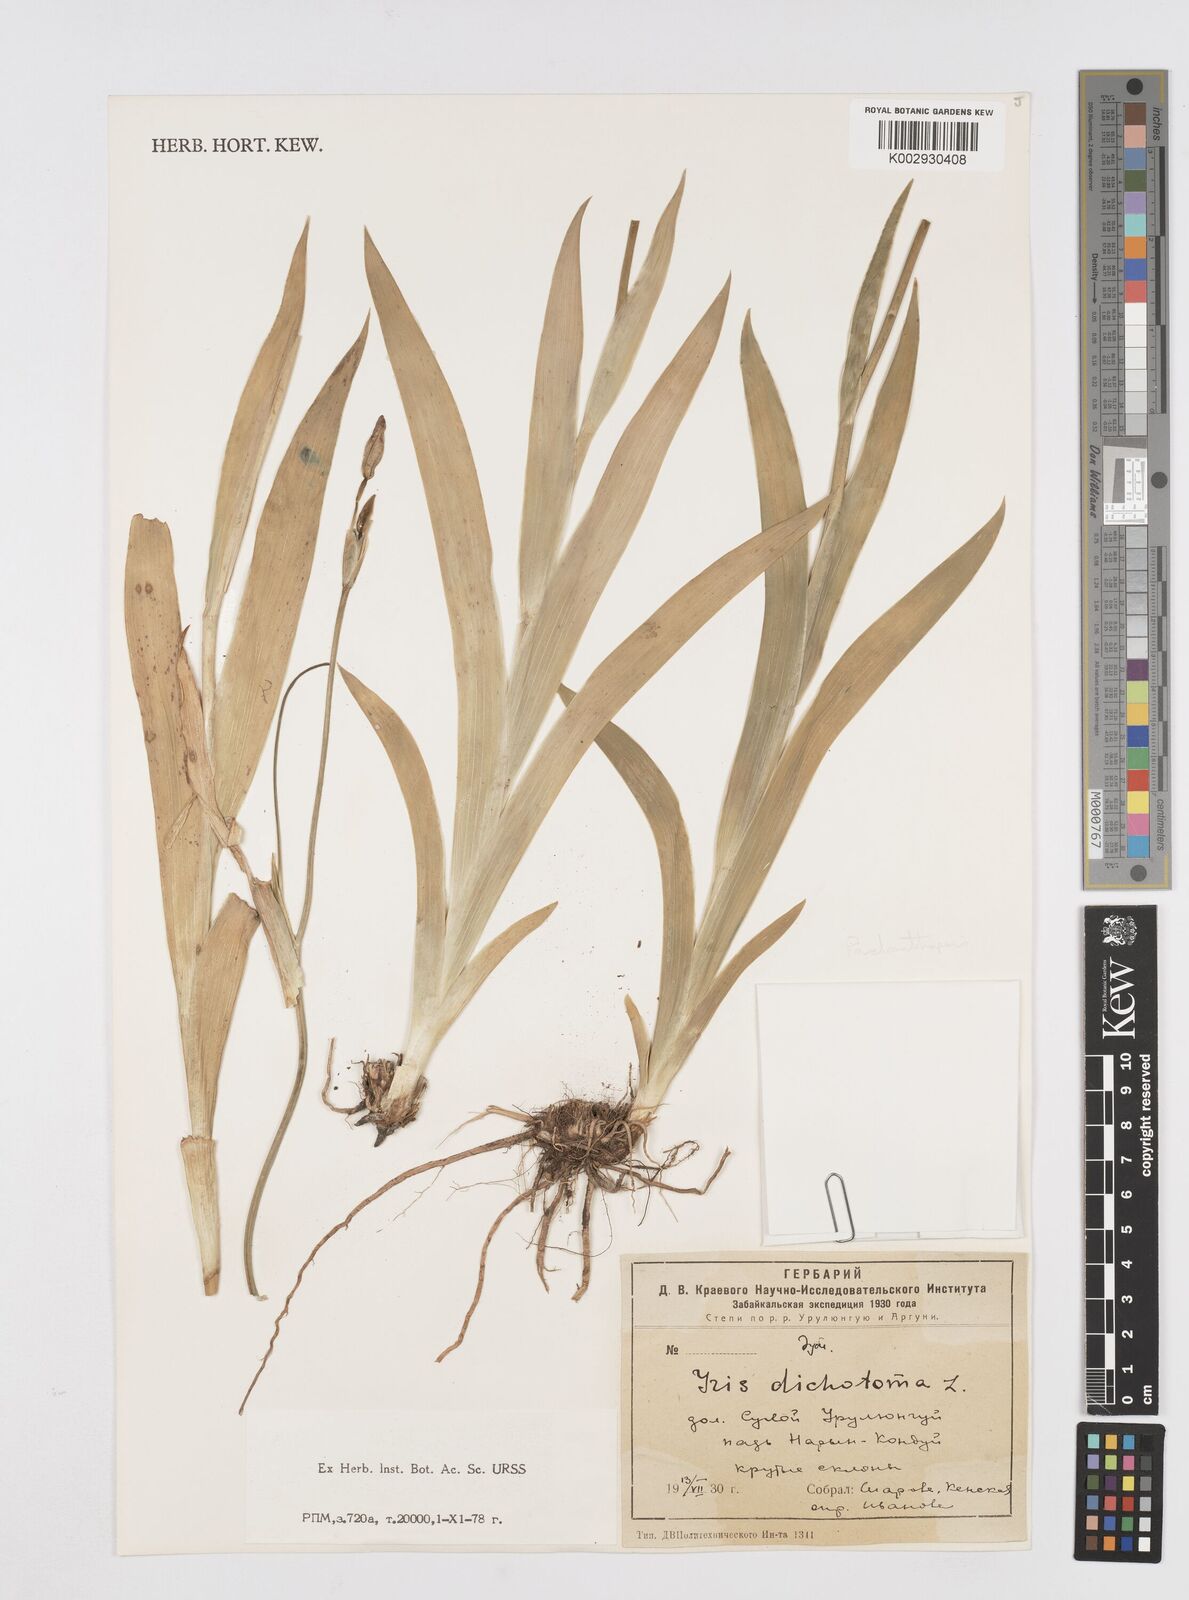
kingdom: Plantae
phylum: Tracheophyta
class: Liliopsida
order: Asparagales
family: Iridaceae
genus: Iris
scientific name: Iris dichotoma
